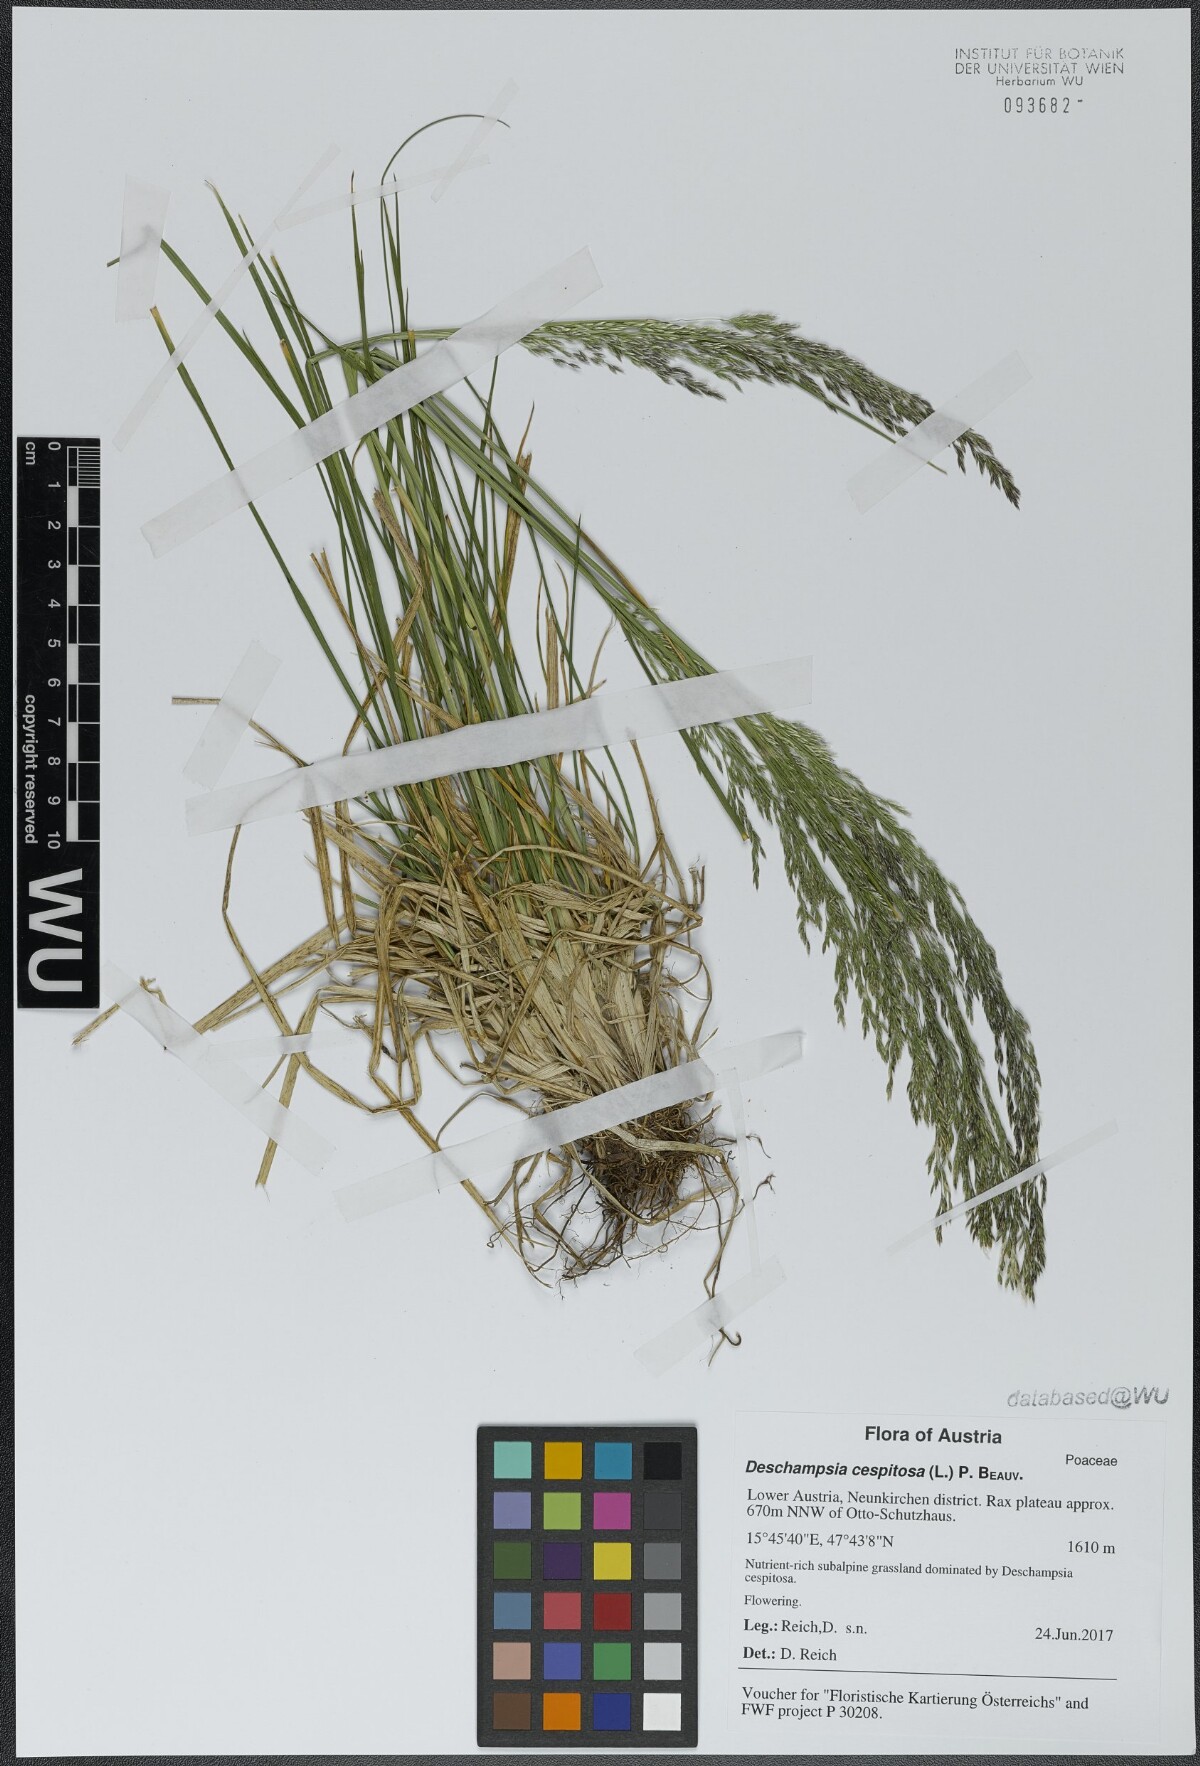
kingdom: Plantae
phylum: Tracheophyta
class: Liliopsida
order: Poales
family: Poaceae
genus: Deschampsia
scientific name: Deschampsia cespitosa
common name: Tufted hair-grass
